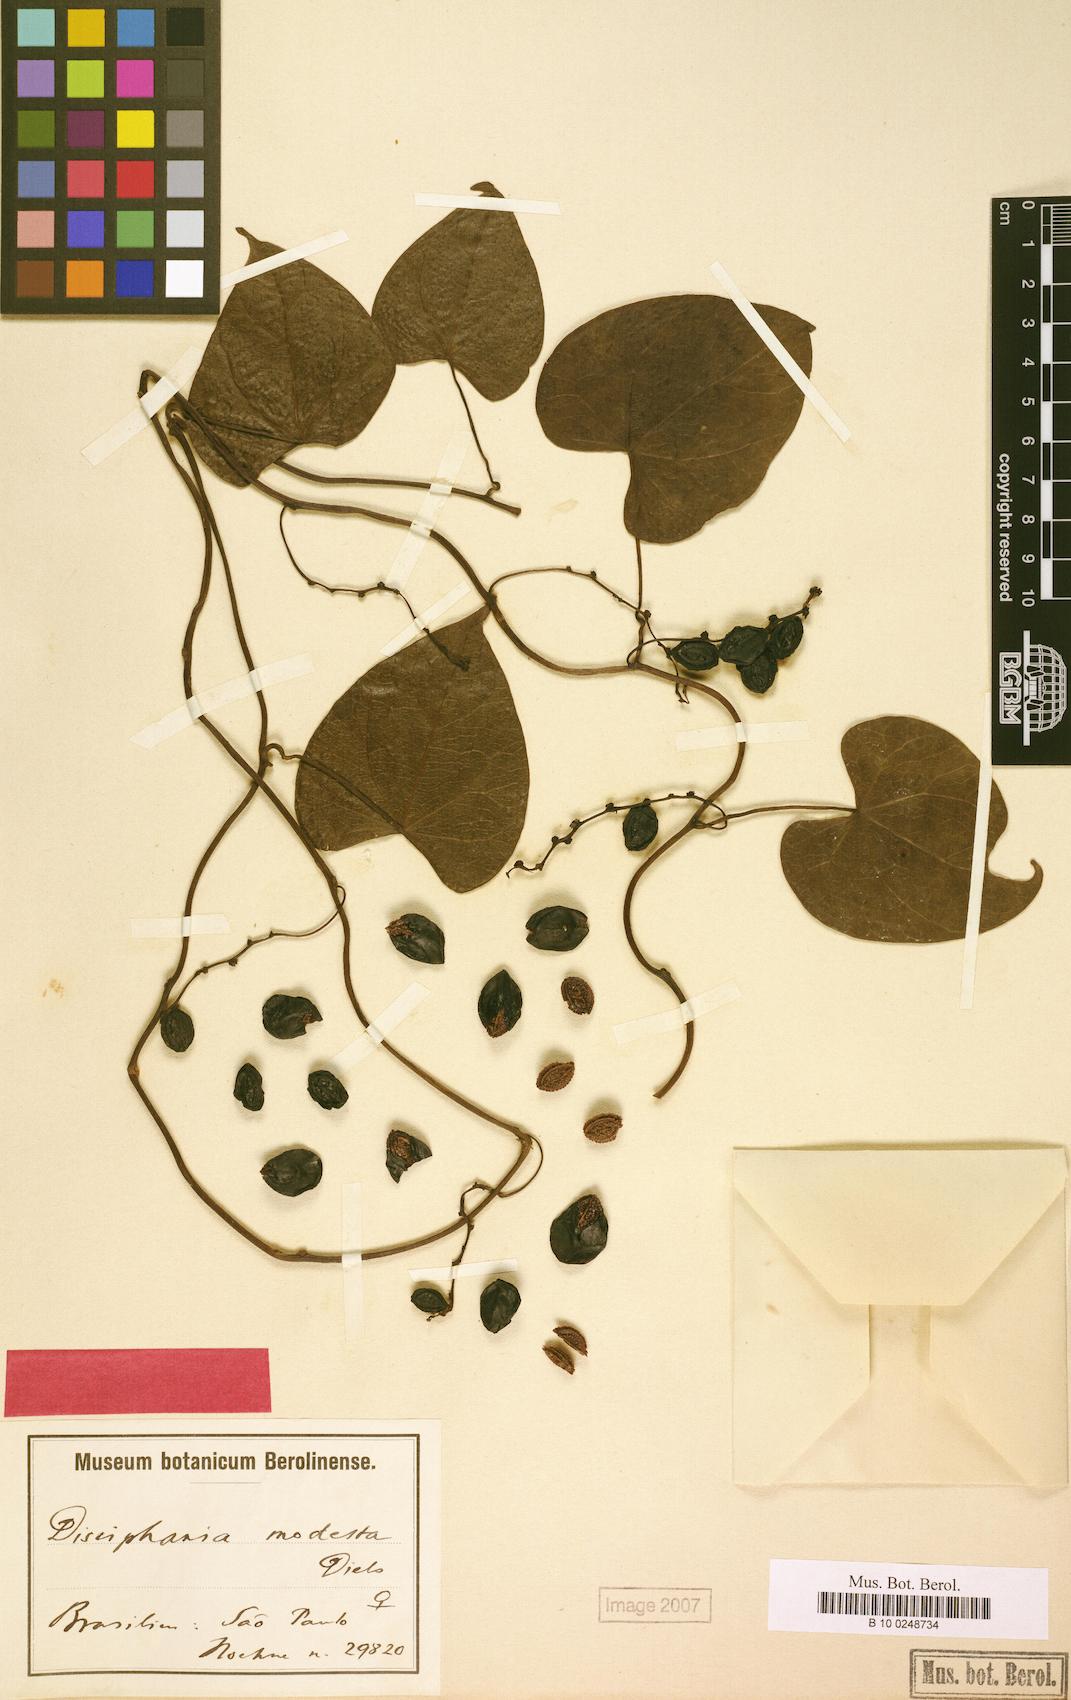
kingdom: Plantae
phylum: Tracheophyta
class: Magnoliopsida
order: Ranunculales
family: Menispermaceae
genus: Disciphania
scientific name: Disciphania modesta
